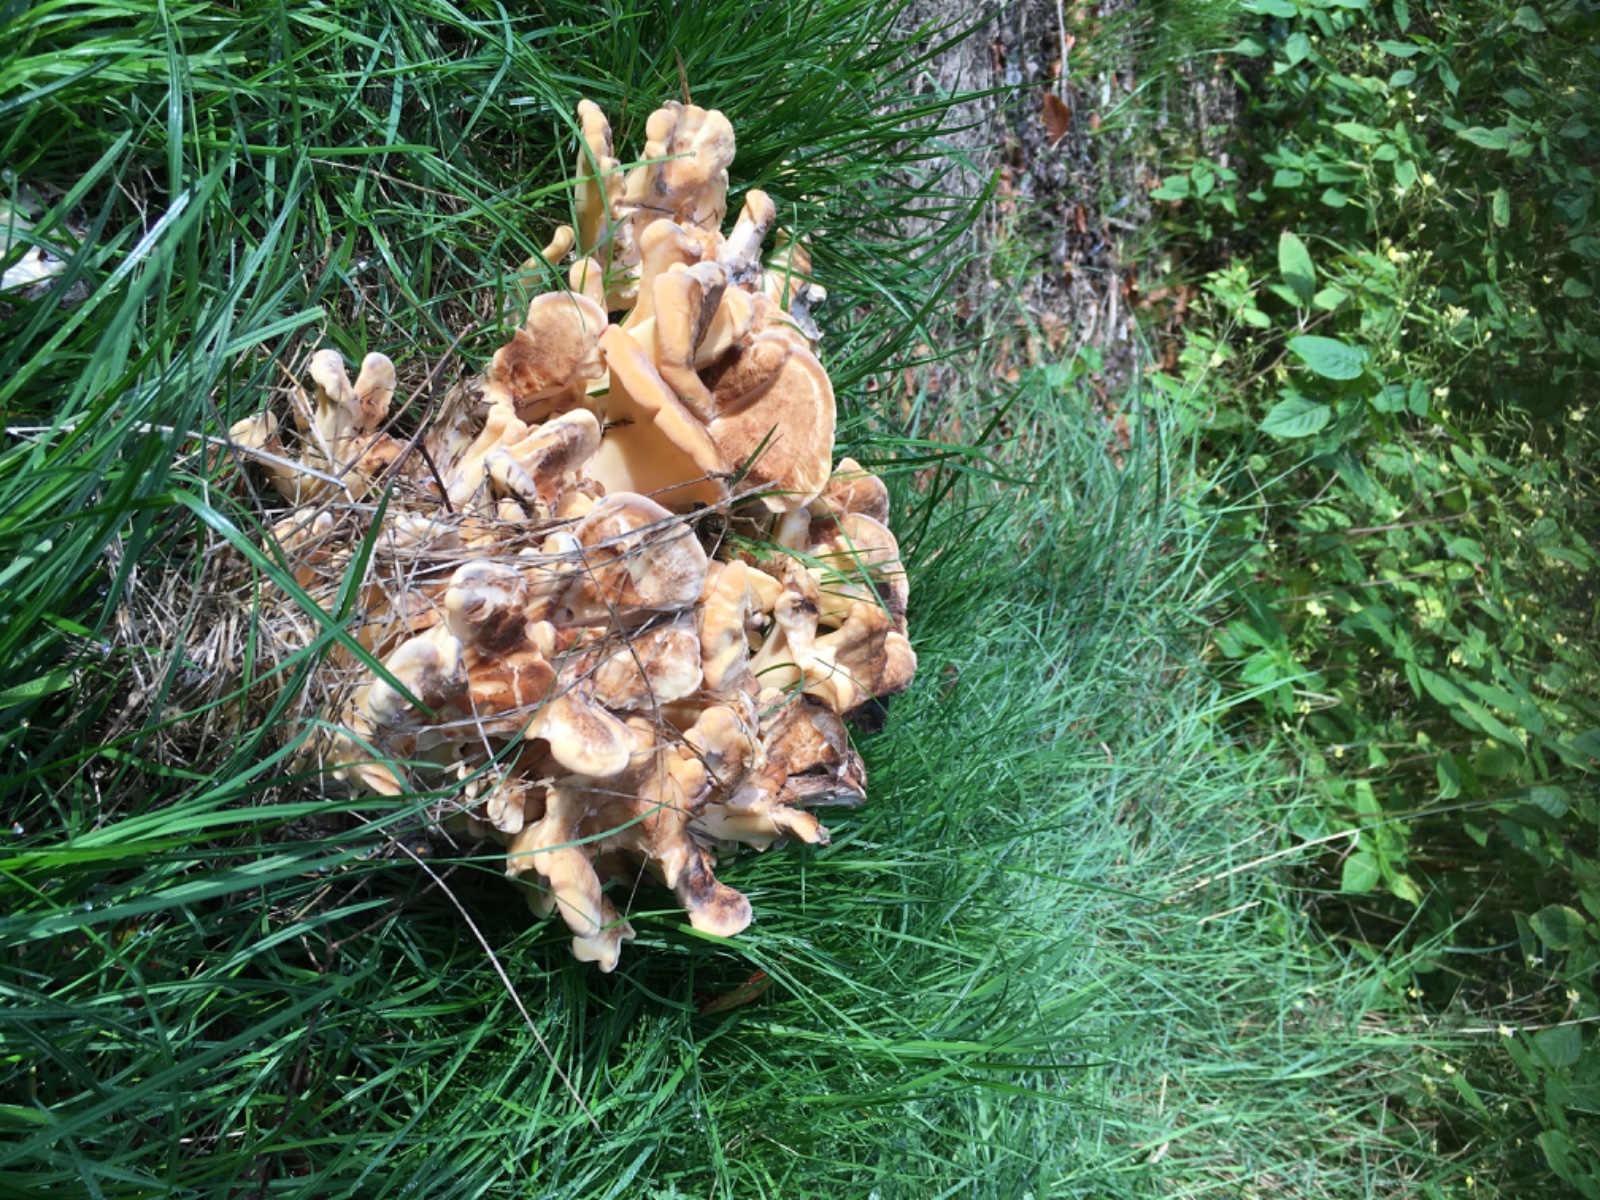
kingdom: Fungi
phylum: Basidiomycota
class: Agaricomycetes
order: Polyporales
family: Meripilaceae
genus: Meripilus
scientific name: Meripilus giganteus
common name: kæmpeporesvamp
